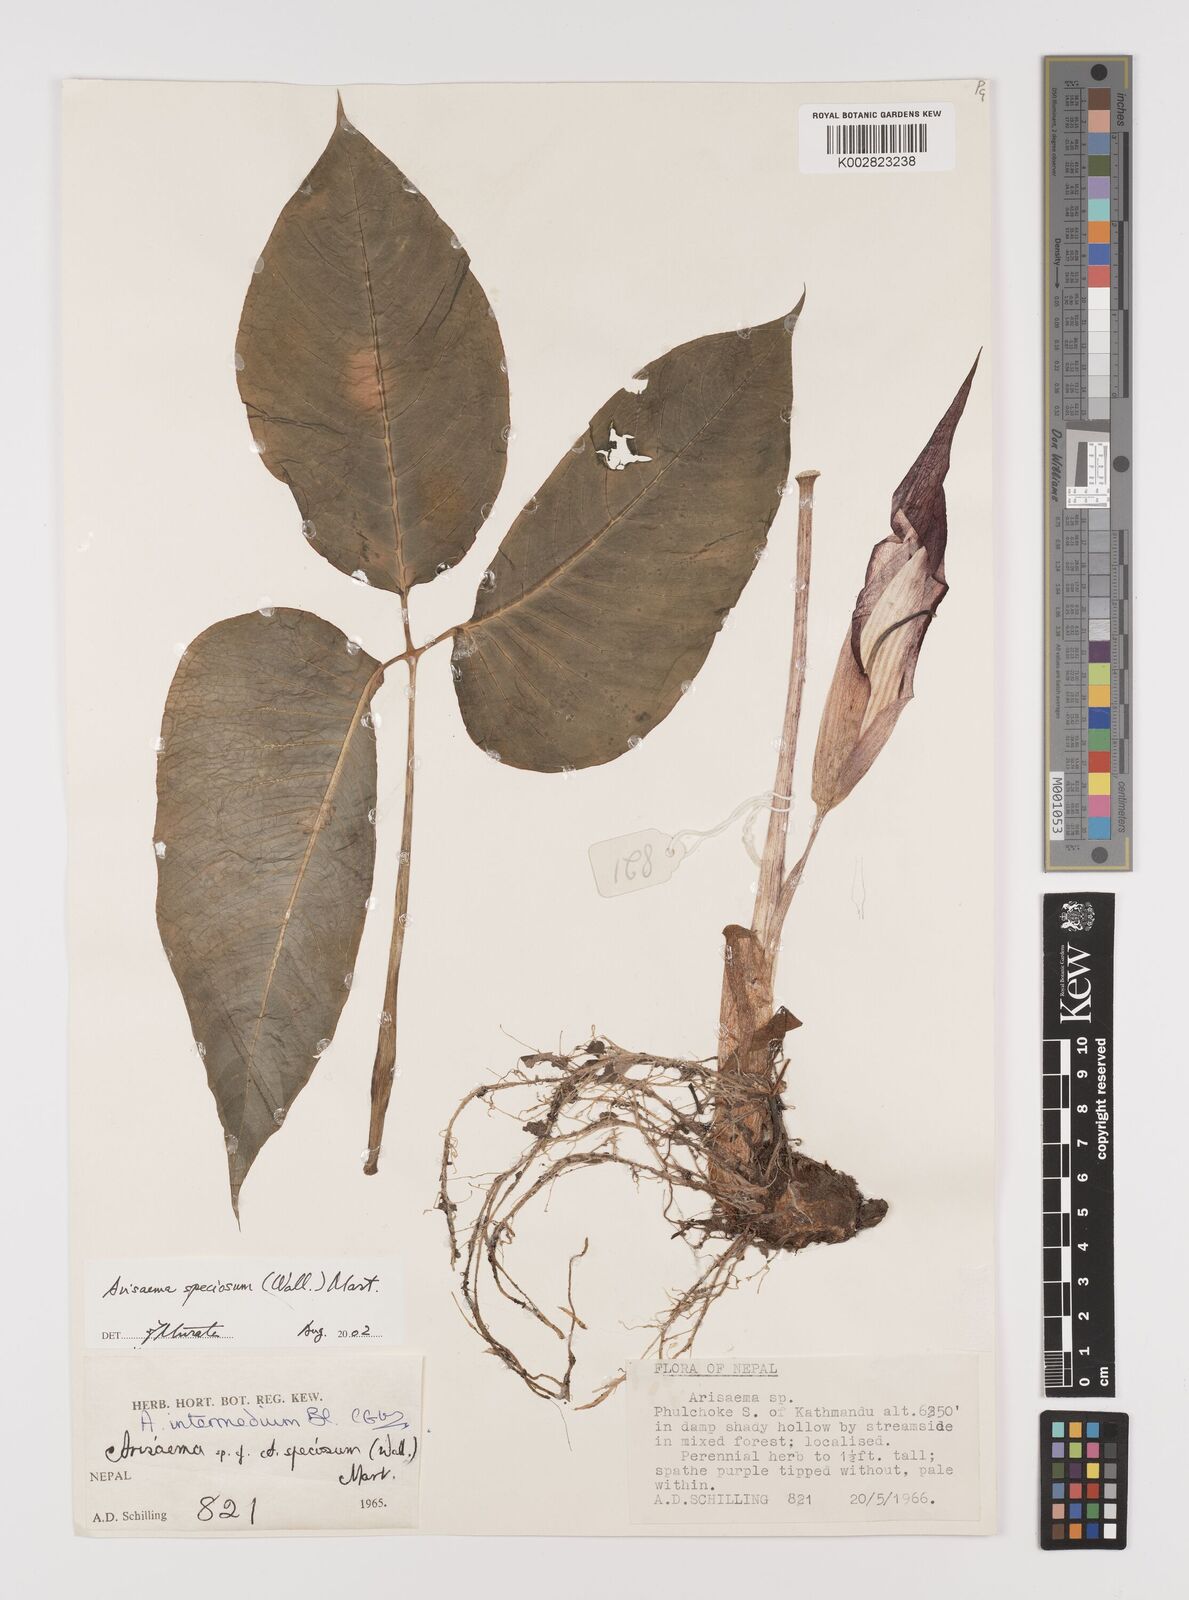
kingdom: Plantae
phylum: Tracheophyta
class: Liliopsida
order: Alismatales
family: Araceae
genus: Arisaema
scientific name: Arisaema speciosum
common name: Showy cobra-lily
